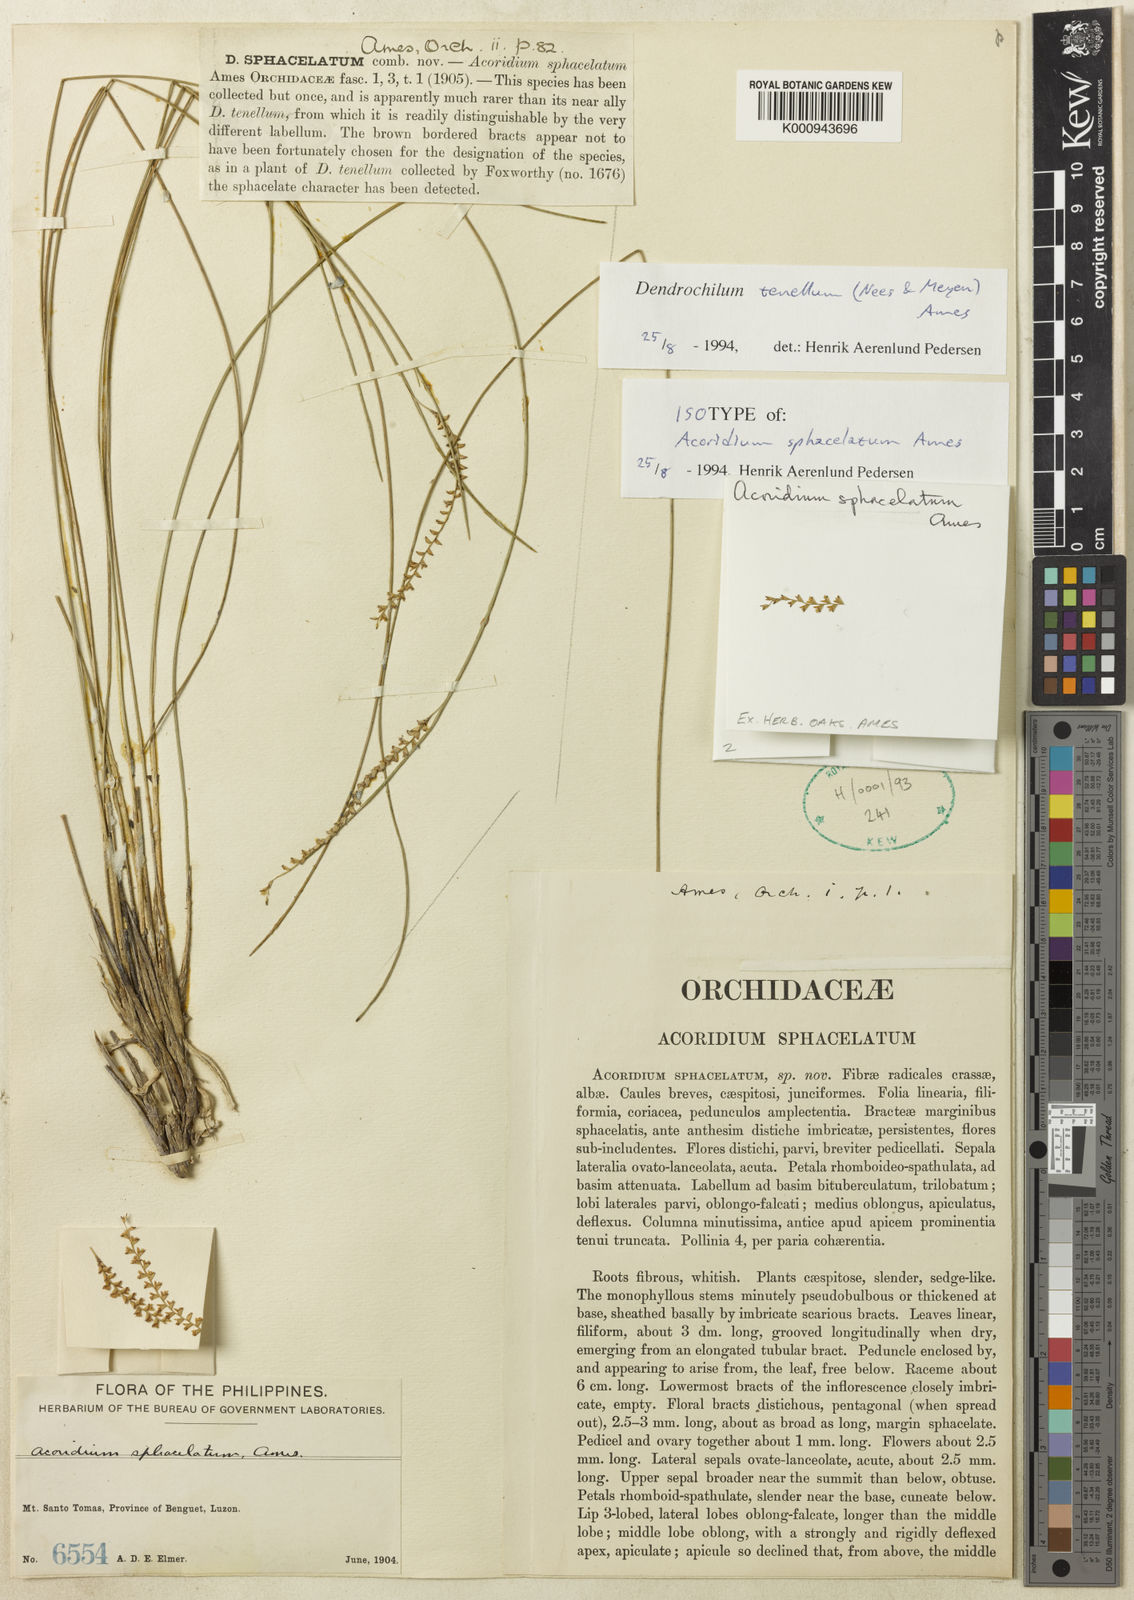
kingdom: Plantae
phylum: Tracheophyta
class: Liliopsida
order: Asparagales
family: Orchidaceae
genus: Coelogyne
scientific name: Coelogyne tenella
